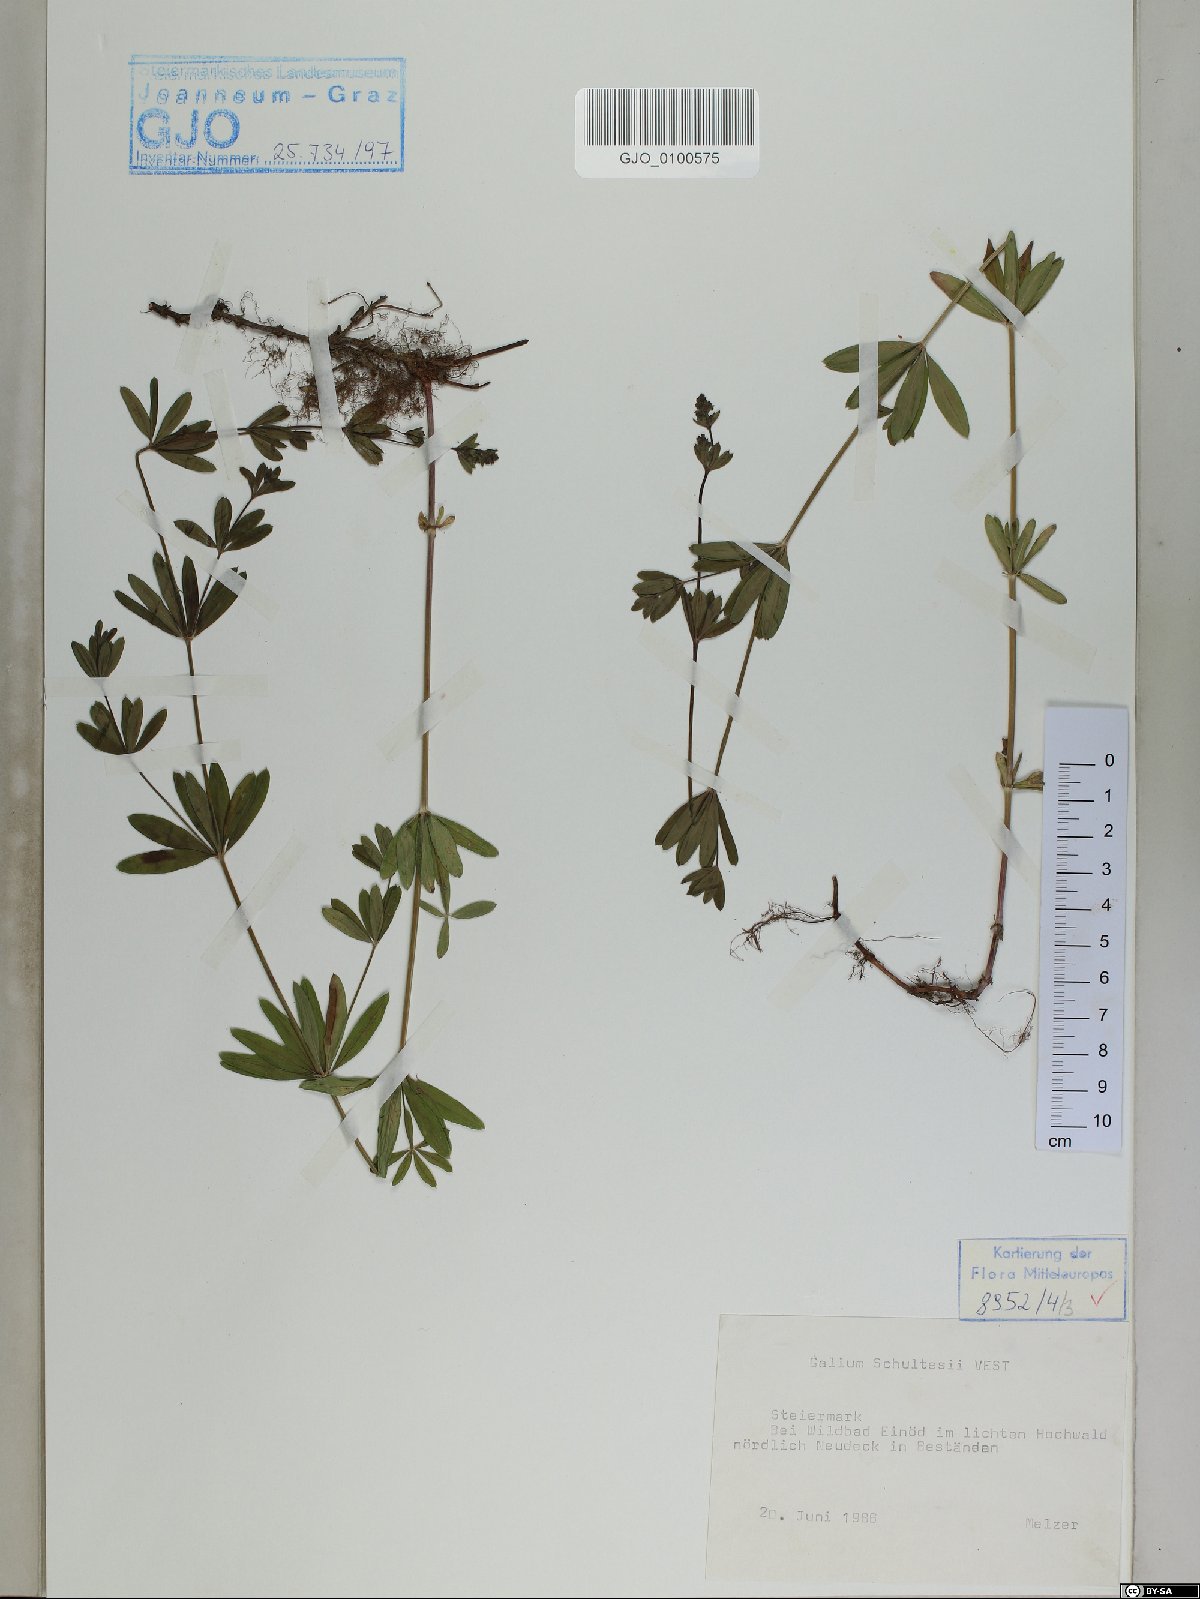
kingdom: Plantae
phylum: Tracheophyta
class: Magnoliopsida
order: Gentianales
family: Rubiaceae
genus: Galium
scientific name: Galium intermedium
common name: Bedstraw
